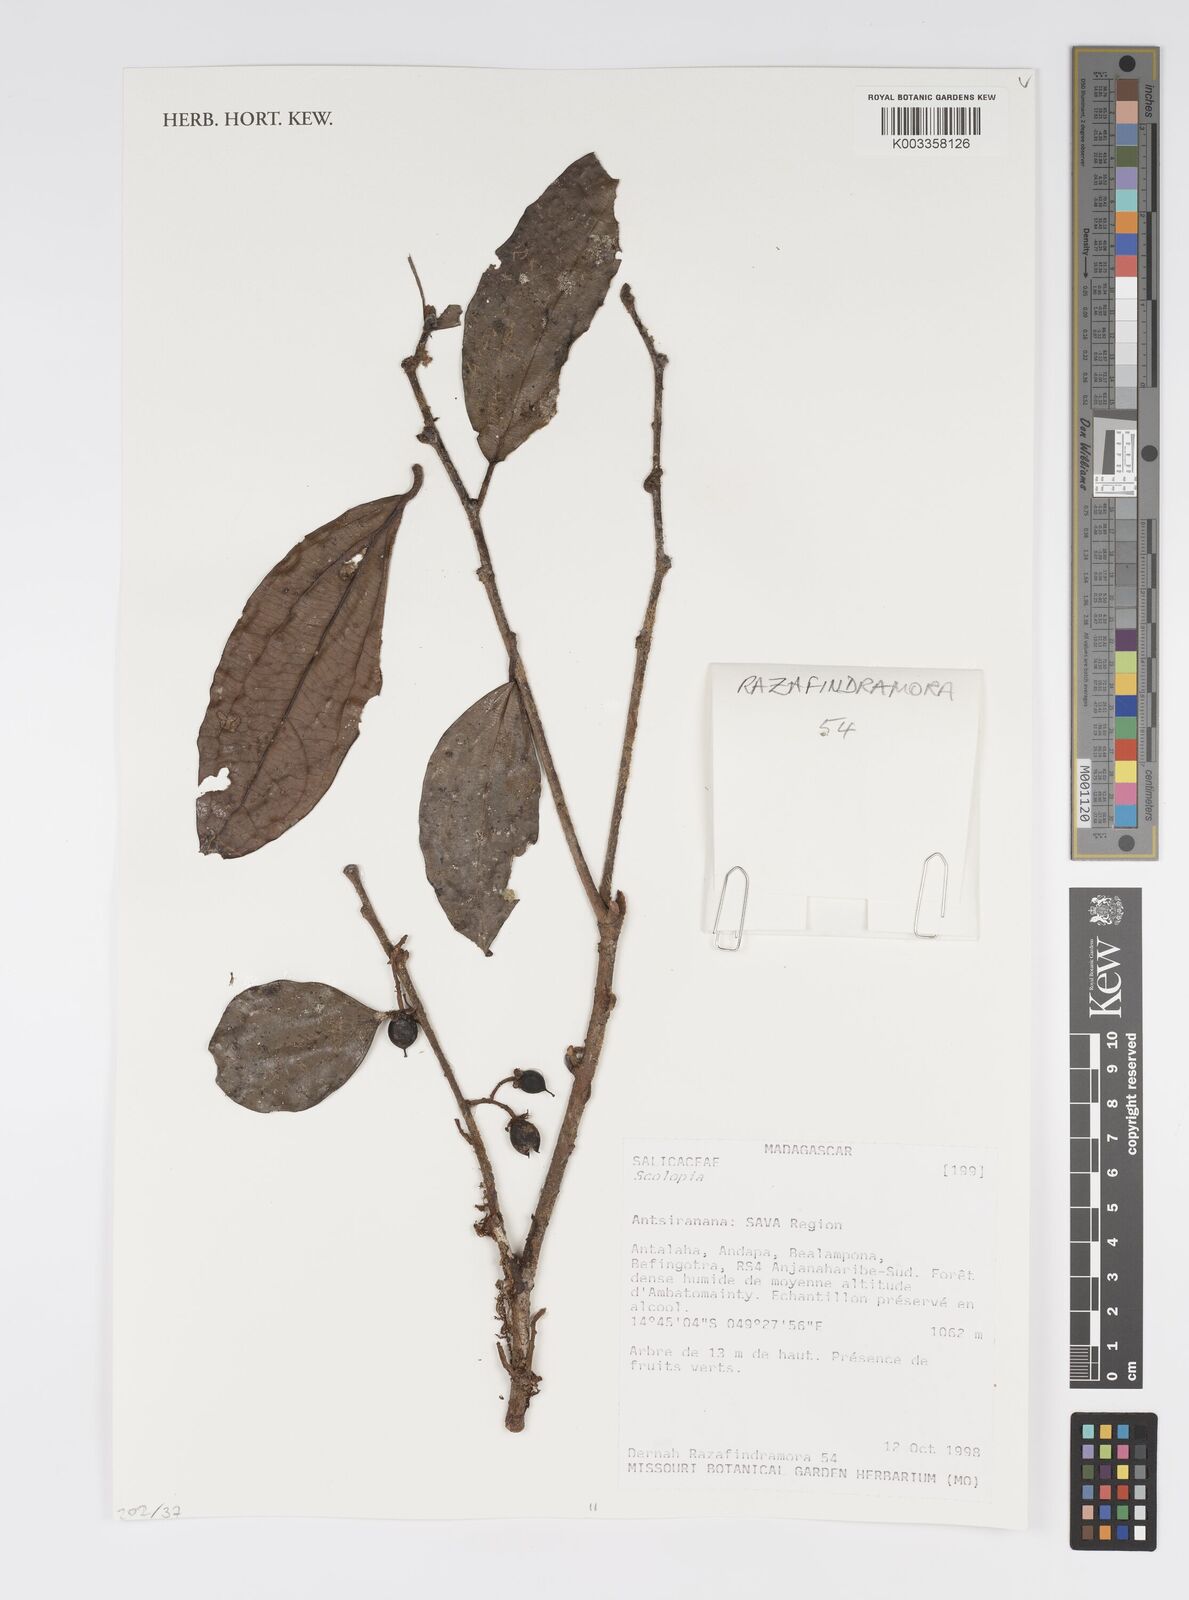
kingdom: Plantae
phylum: Tracheophyta
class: Magnoliopsida
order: Malpighiales
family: Salicaceae
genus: Scolopia
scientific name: Scolopia
